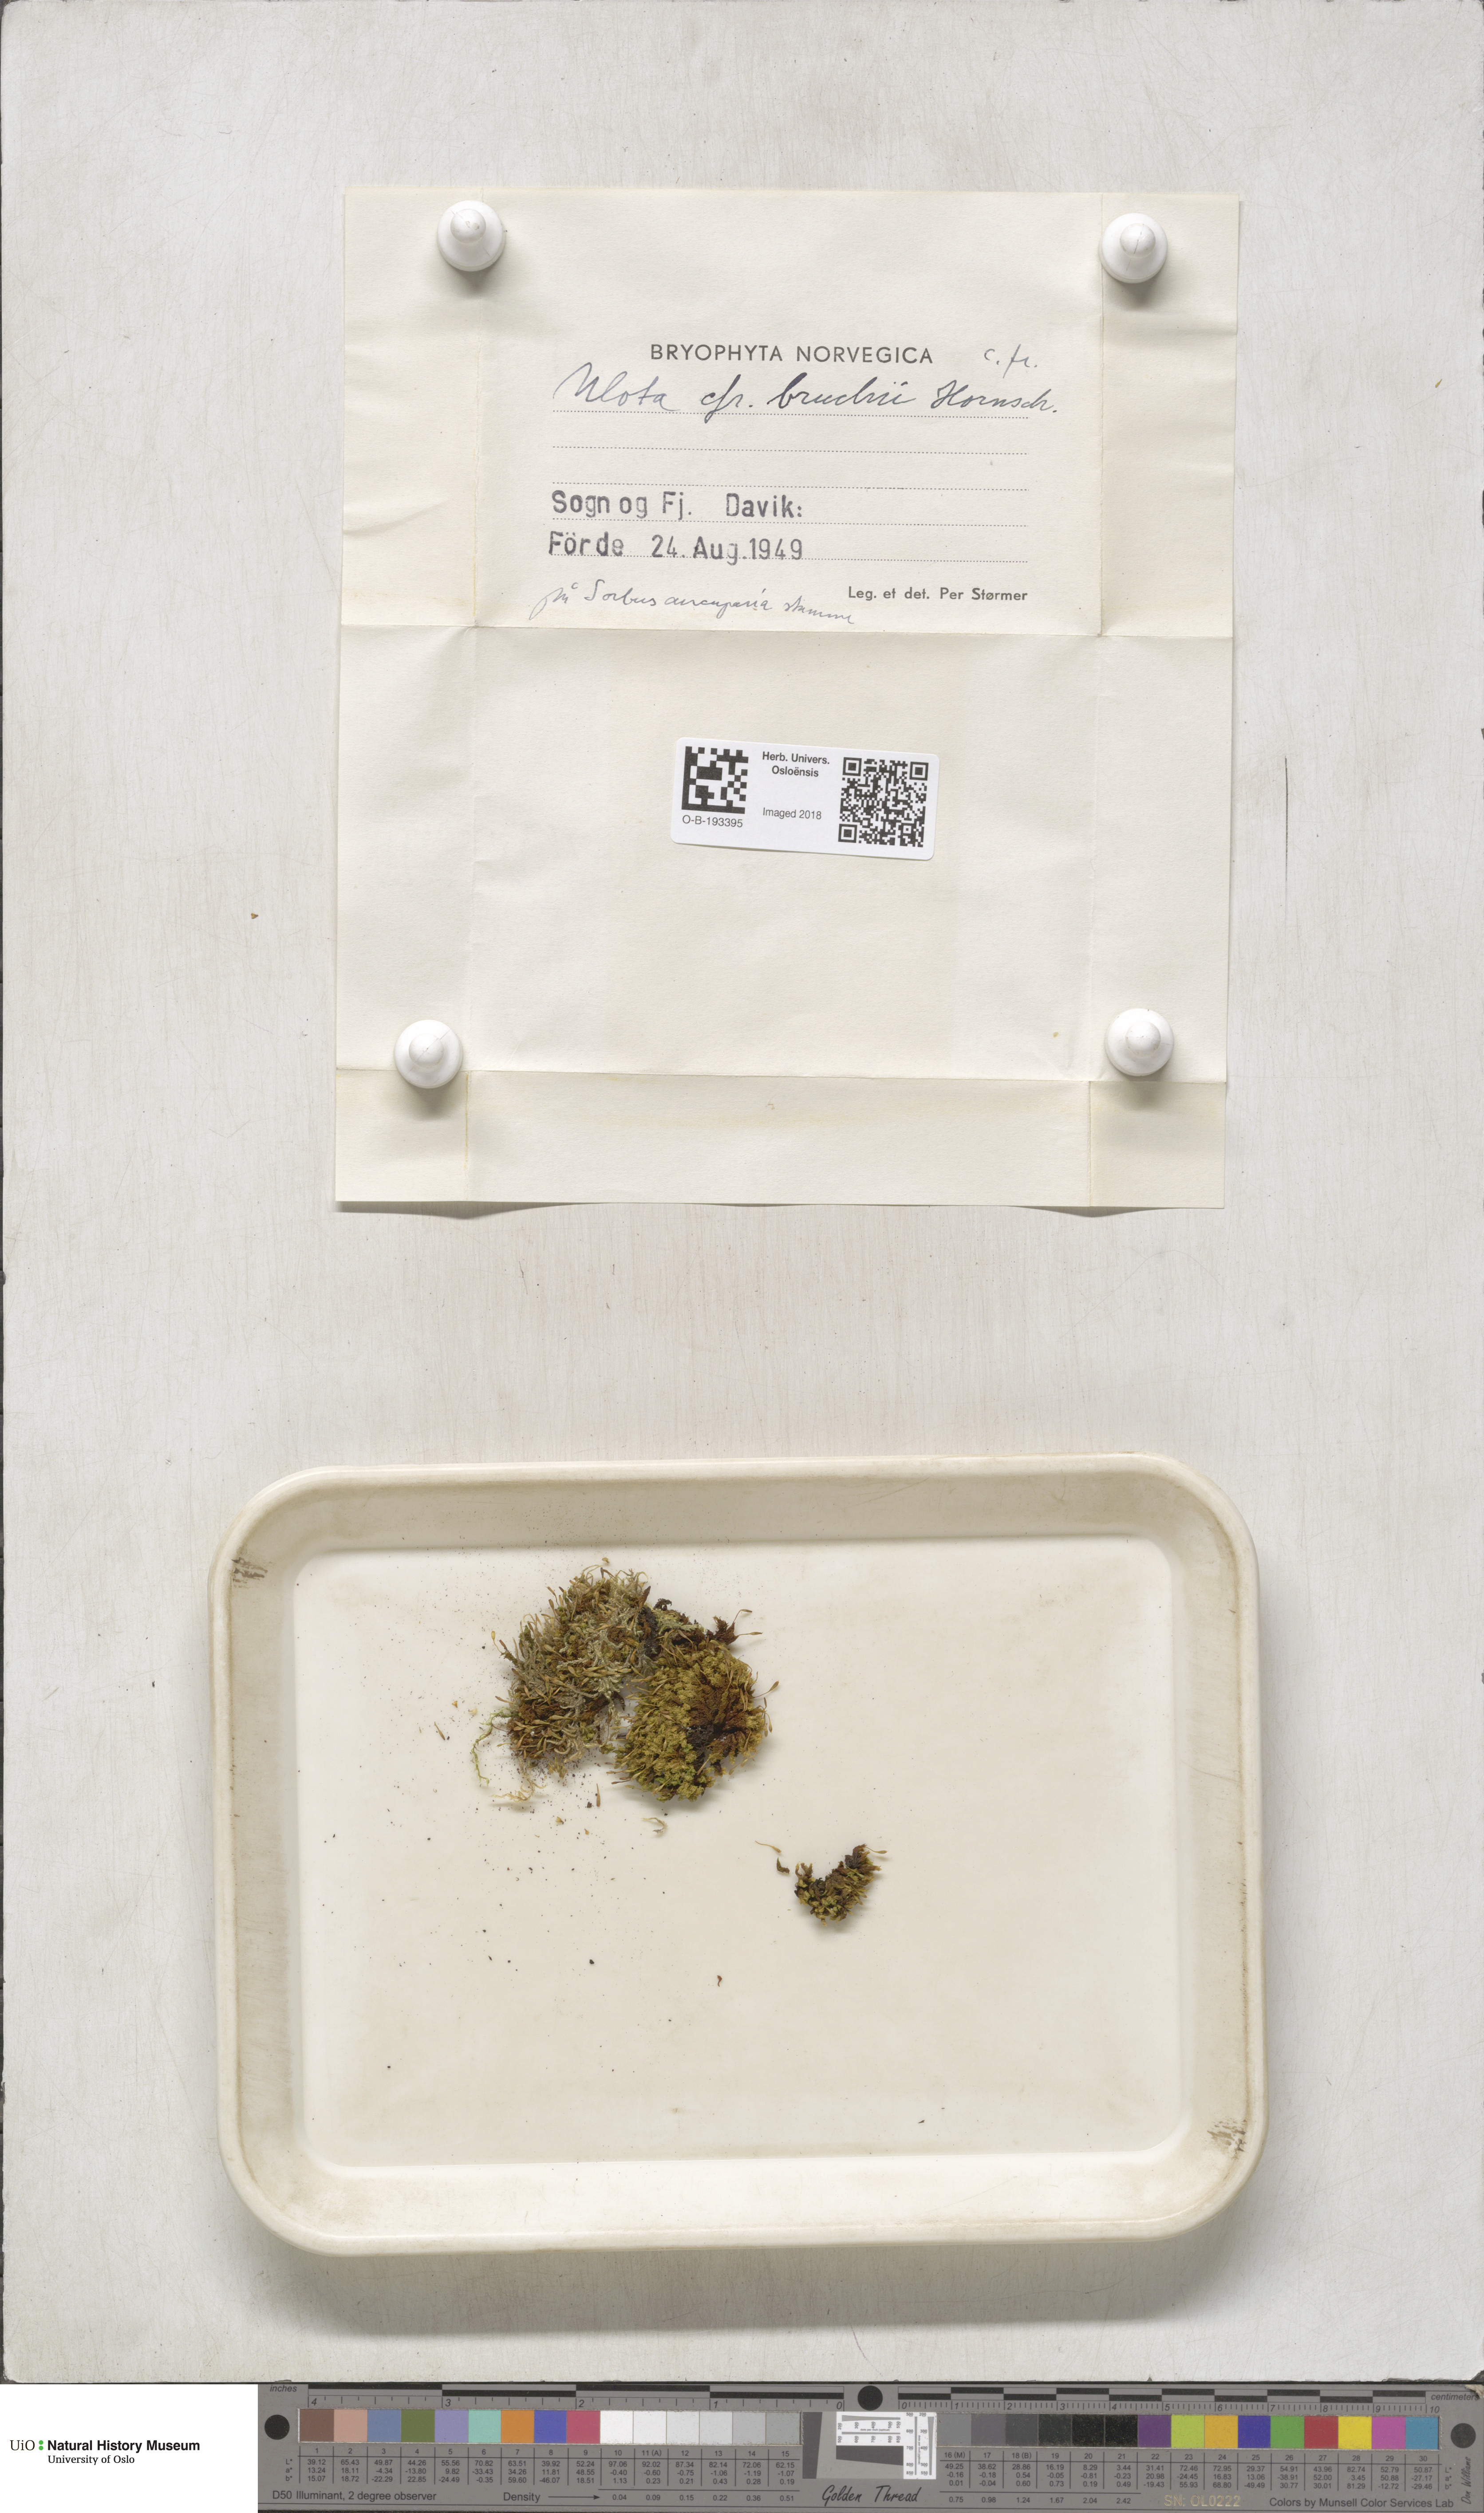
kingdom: Plantae
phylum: Bryophyta
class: Bryopsida
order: Orthotrichales
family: Orthotrichaceae
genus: Ulota
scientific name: Ulota bruchii
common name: Bruch's pincushion
